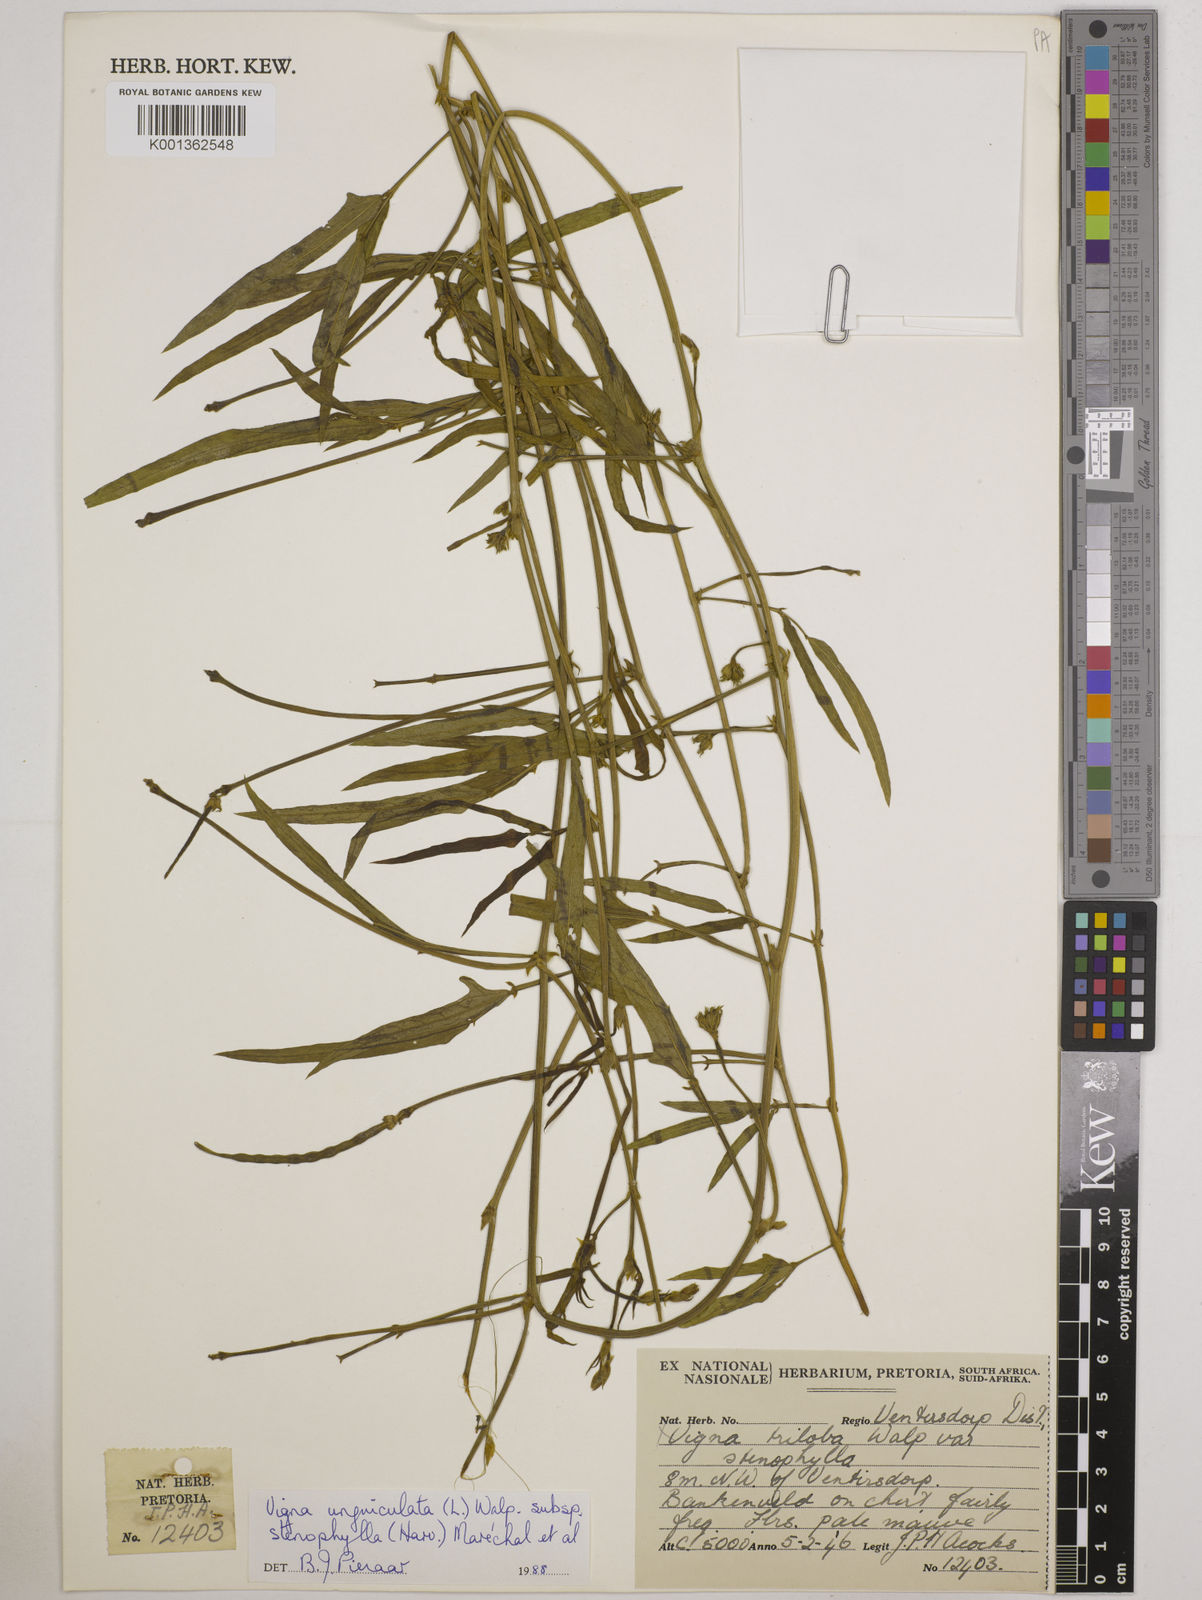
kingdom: Plantae
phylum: Tracheophyta
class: Magnoliopsida
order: Fabales
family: Fabaceae
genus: Vigna
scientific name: Vigna
